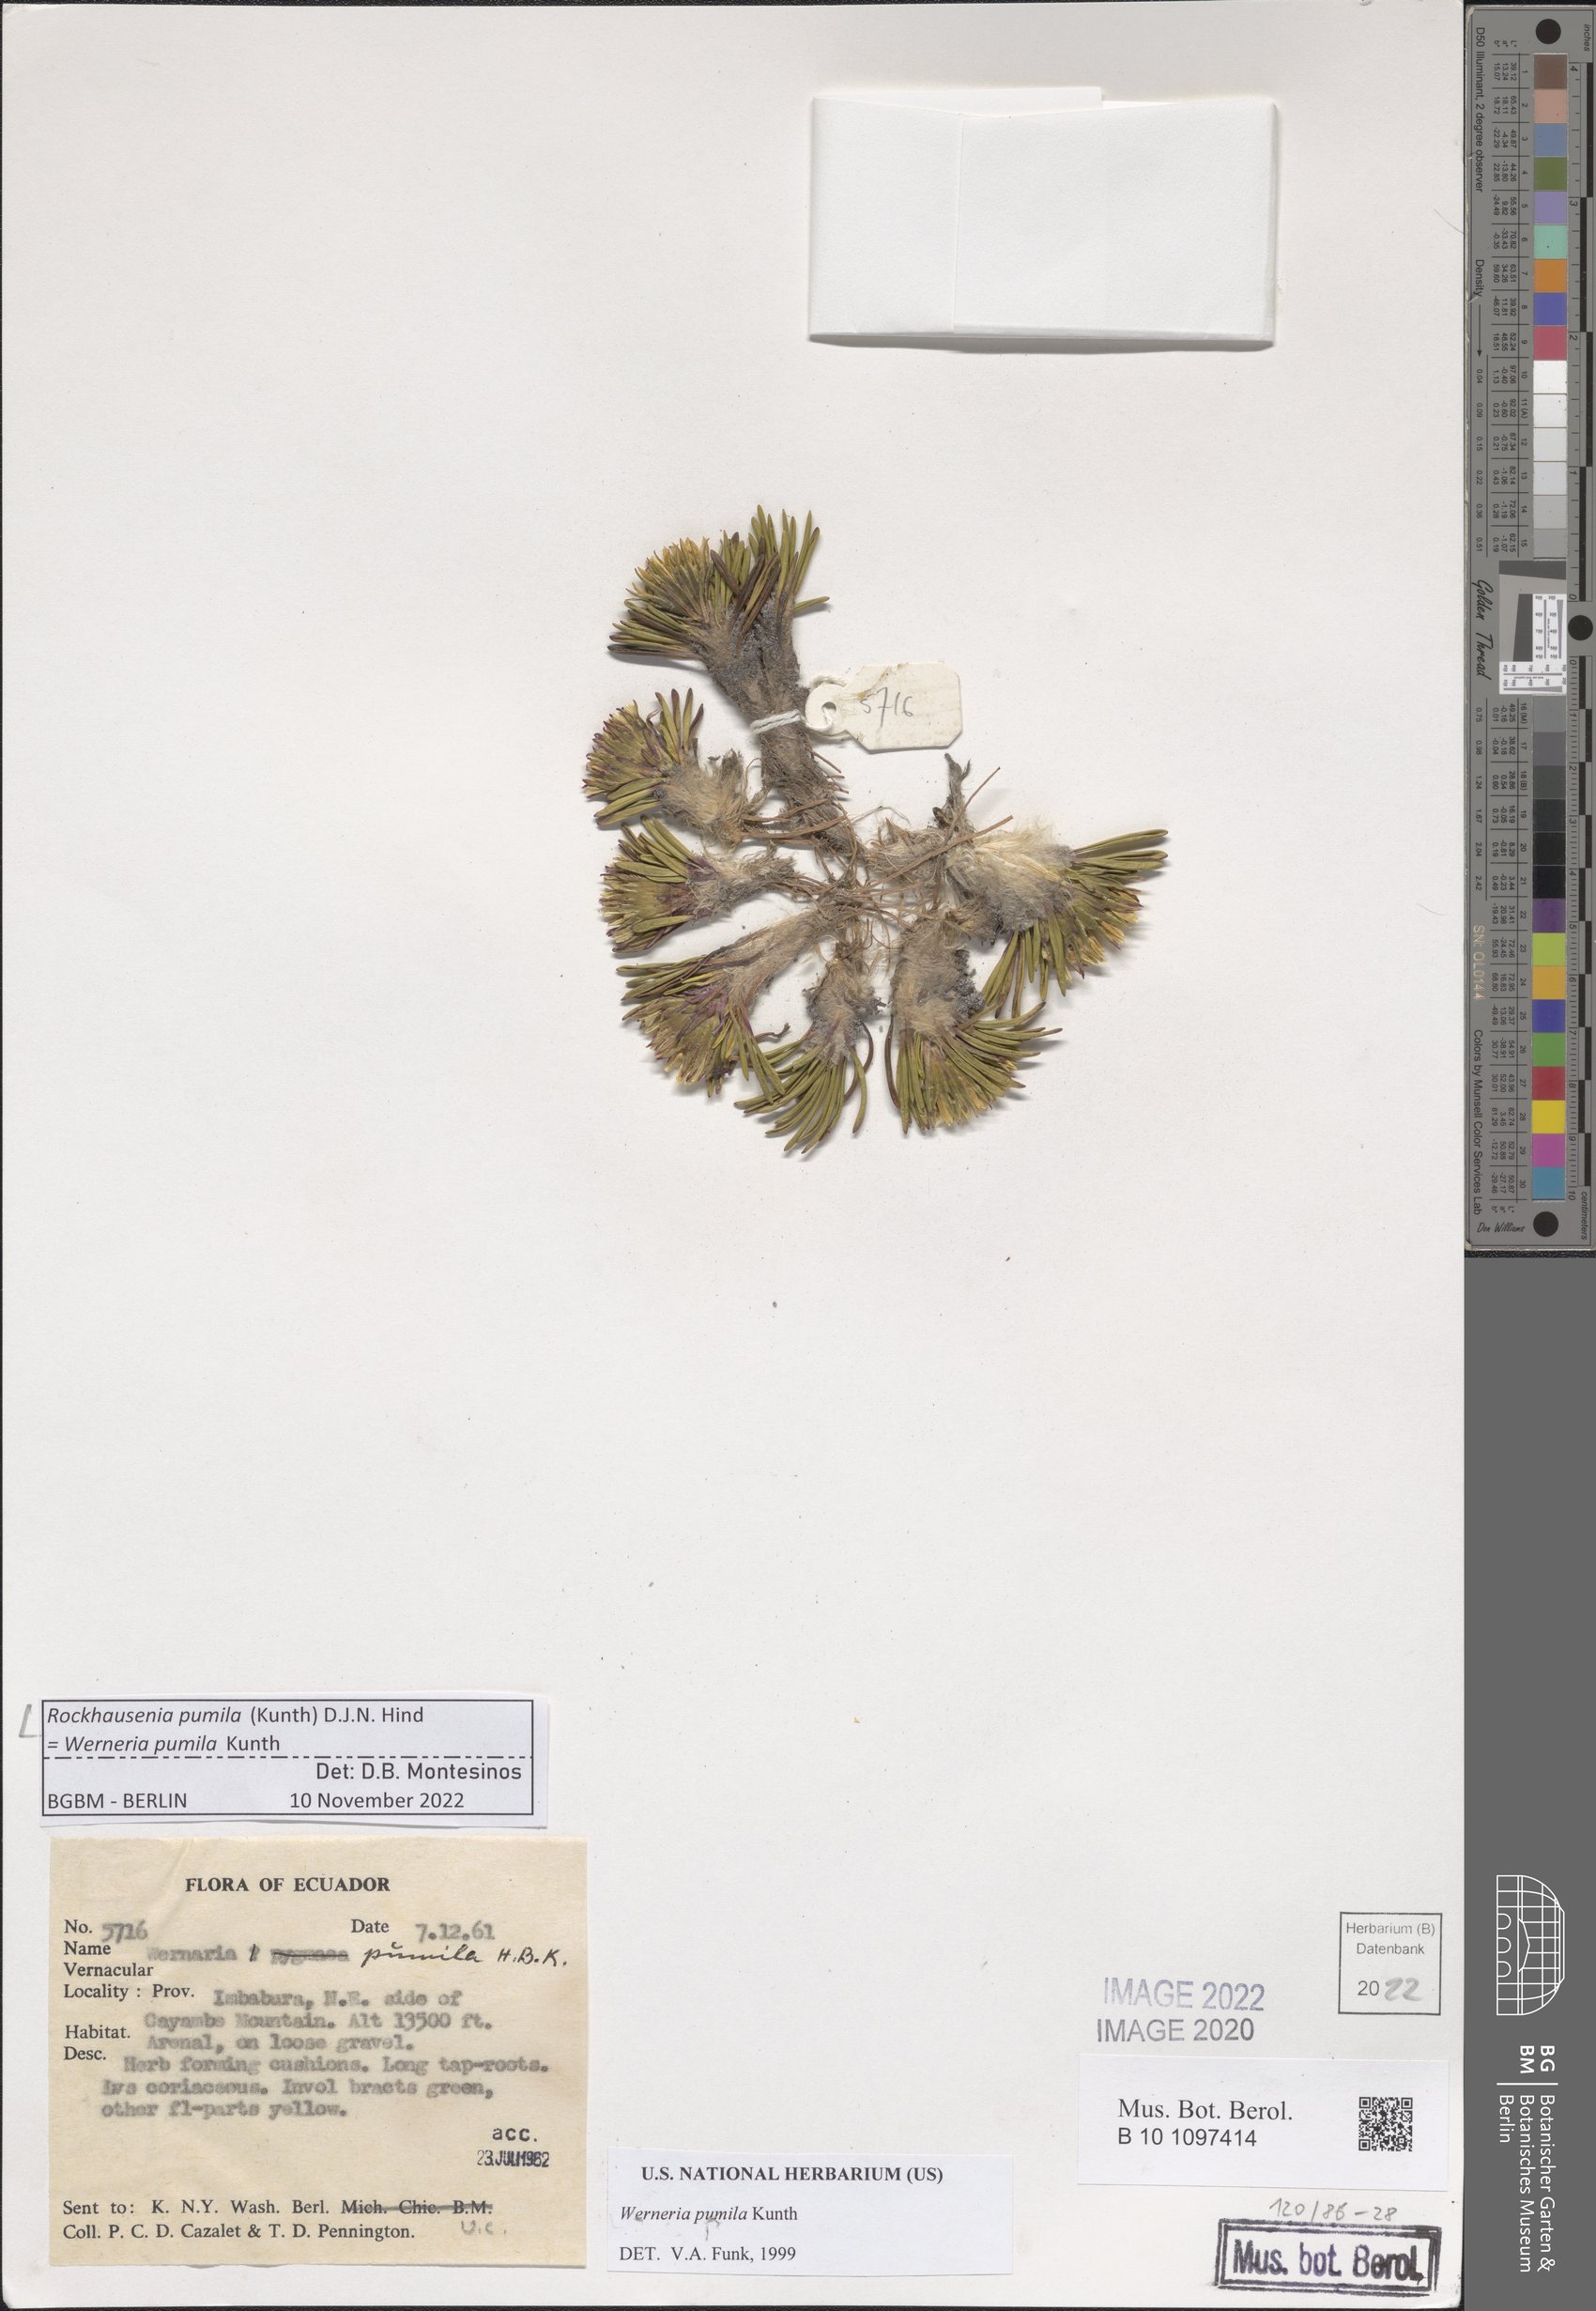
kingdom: Plantae
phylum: Tracheophyta
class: Magnoliopsida
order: Asterales
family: Asteraceae
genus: Rockhausenia
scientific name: Rockhausenia pumila
